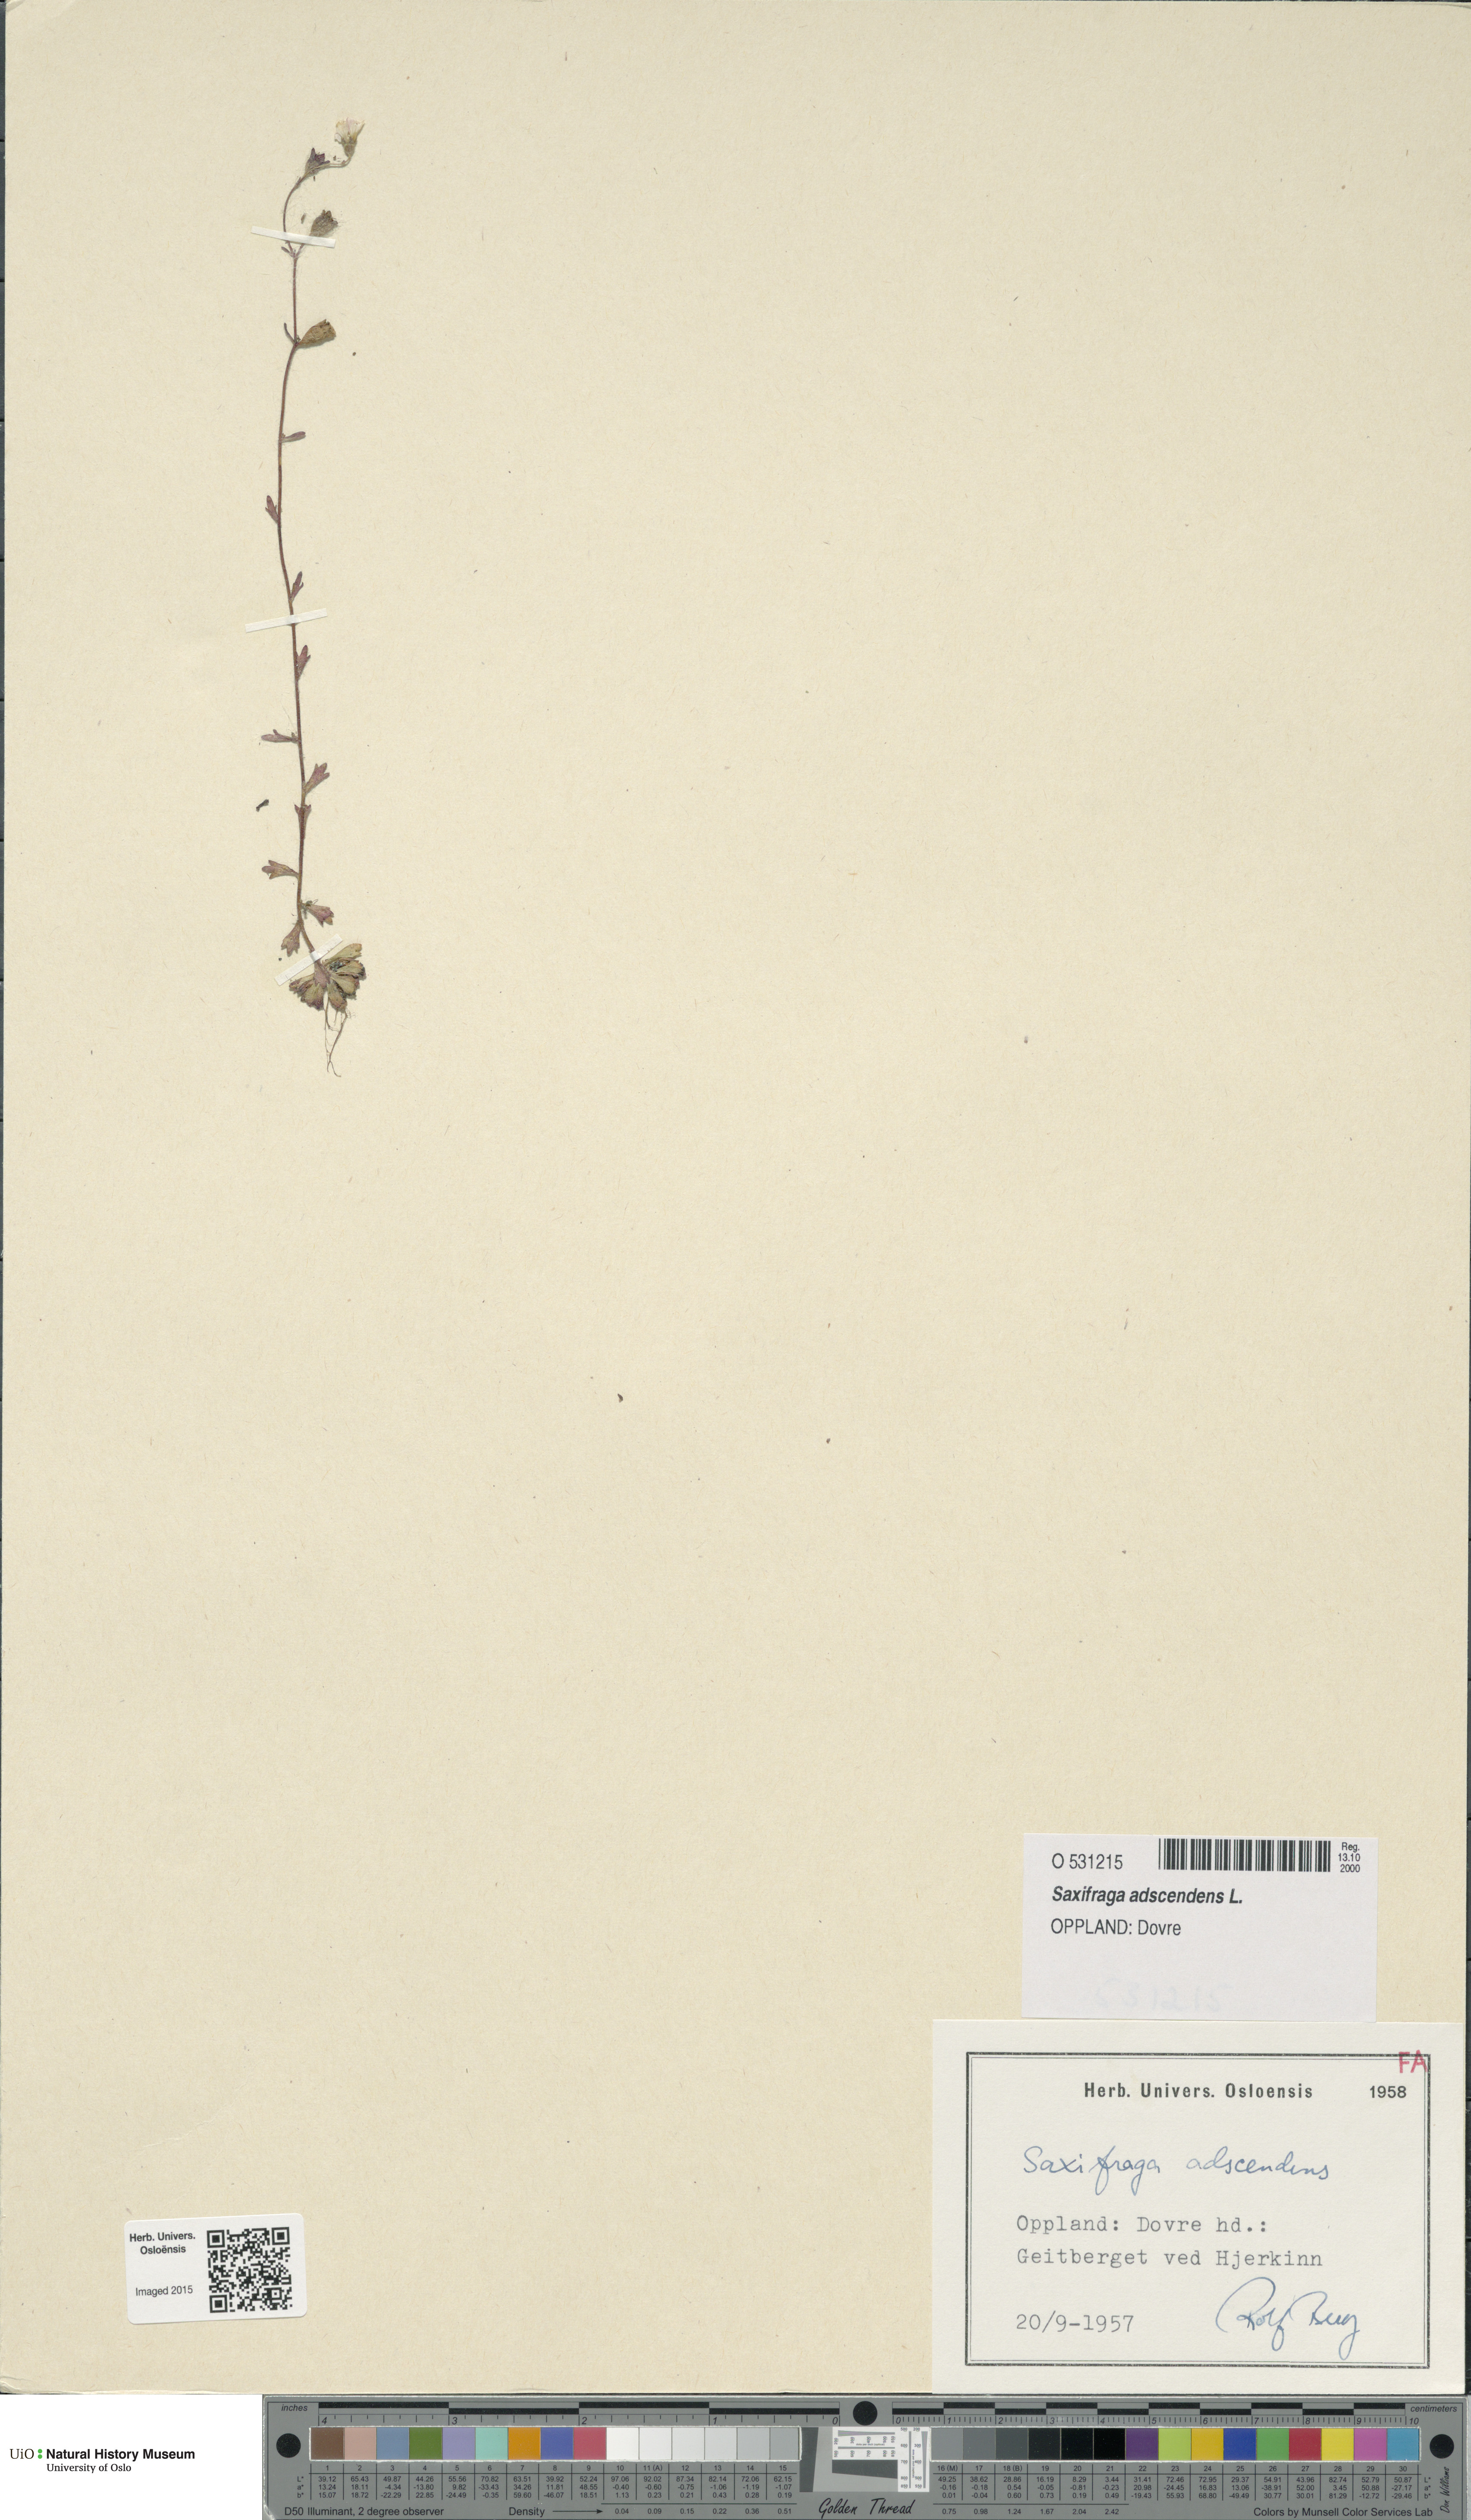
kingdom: Plantae
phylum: Tracheophyta
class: Magnoliopsida
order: Saxifragales
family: Saxifragaceae
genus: Saxifraga
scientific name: Saxifraga adscendens
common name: Ascending saxifrage
